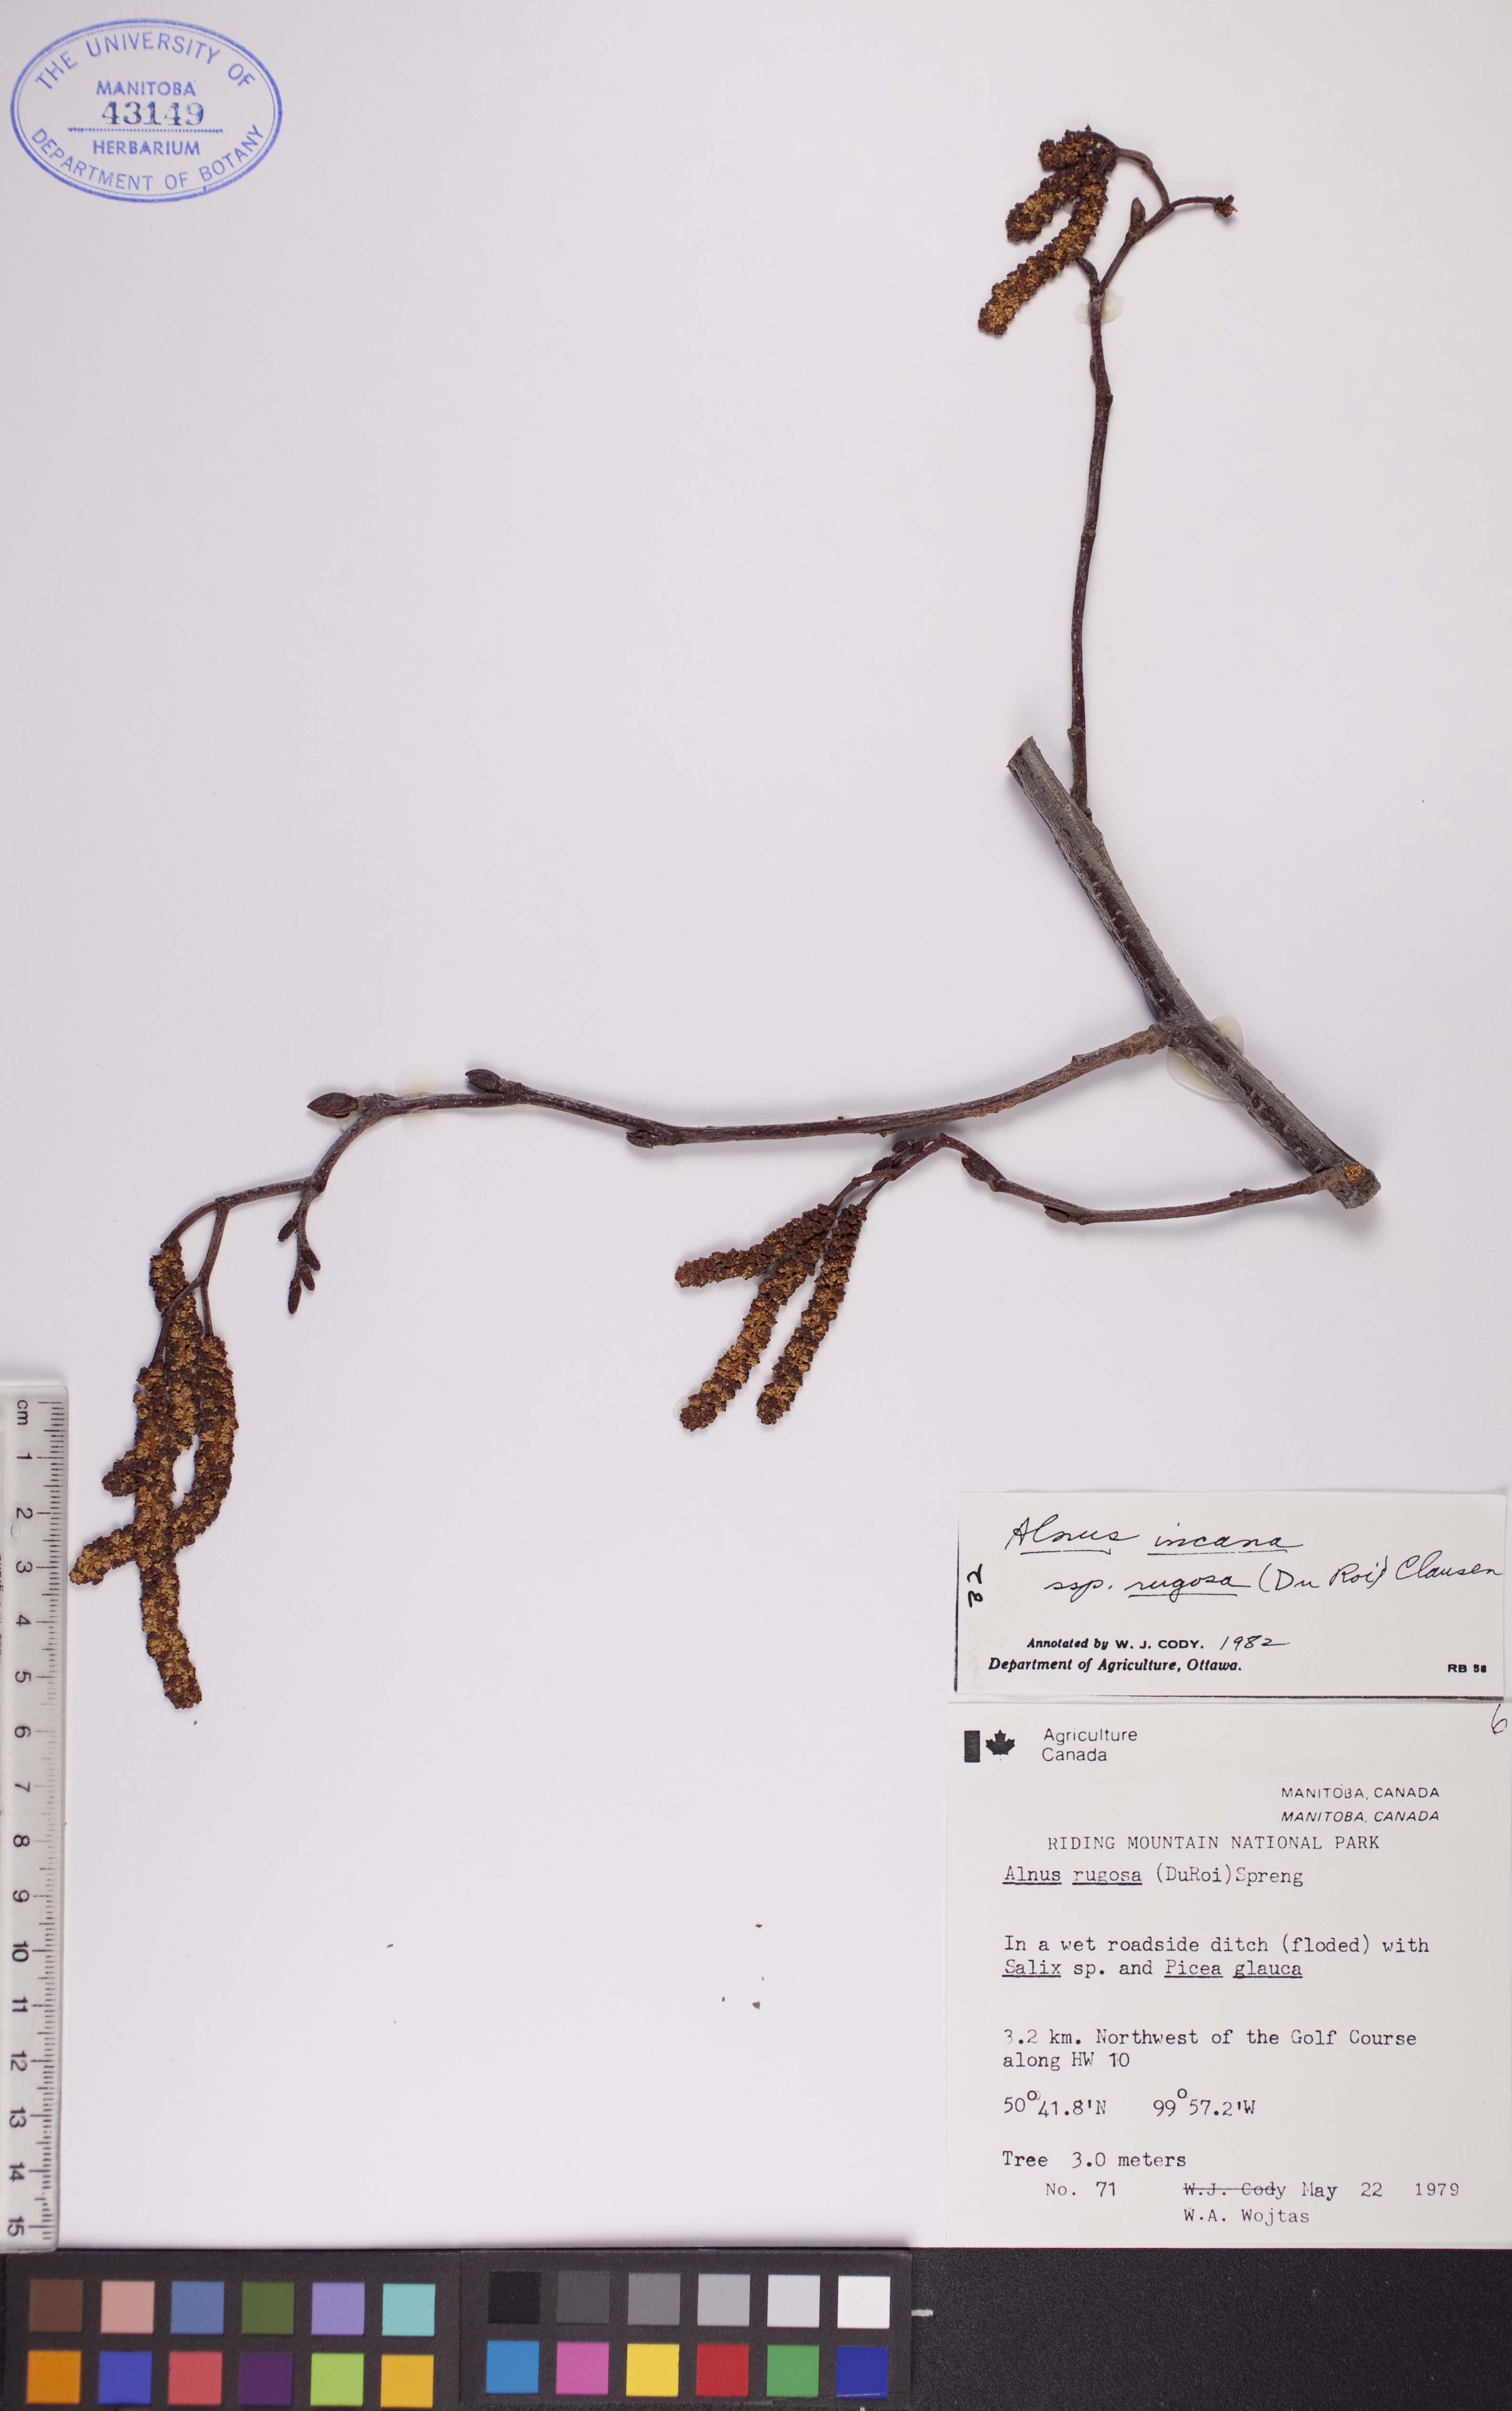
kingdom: Plantae
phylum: Tracheophyta
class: Magnoliopsida
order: Fagales
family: Betulaceae
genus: Alnus
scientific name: Alnus incana
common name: Grey alder
